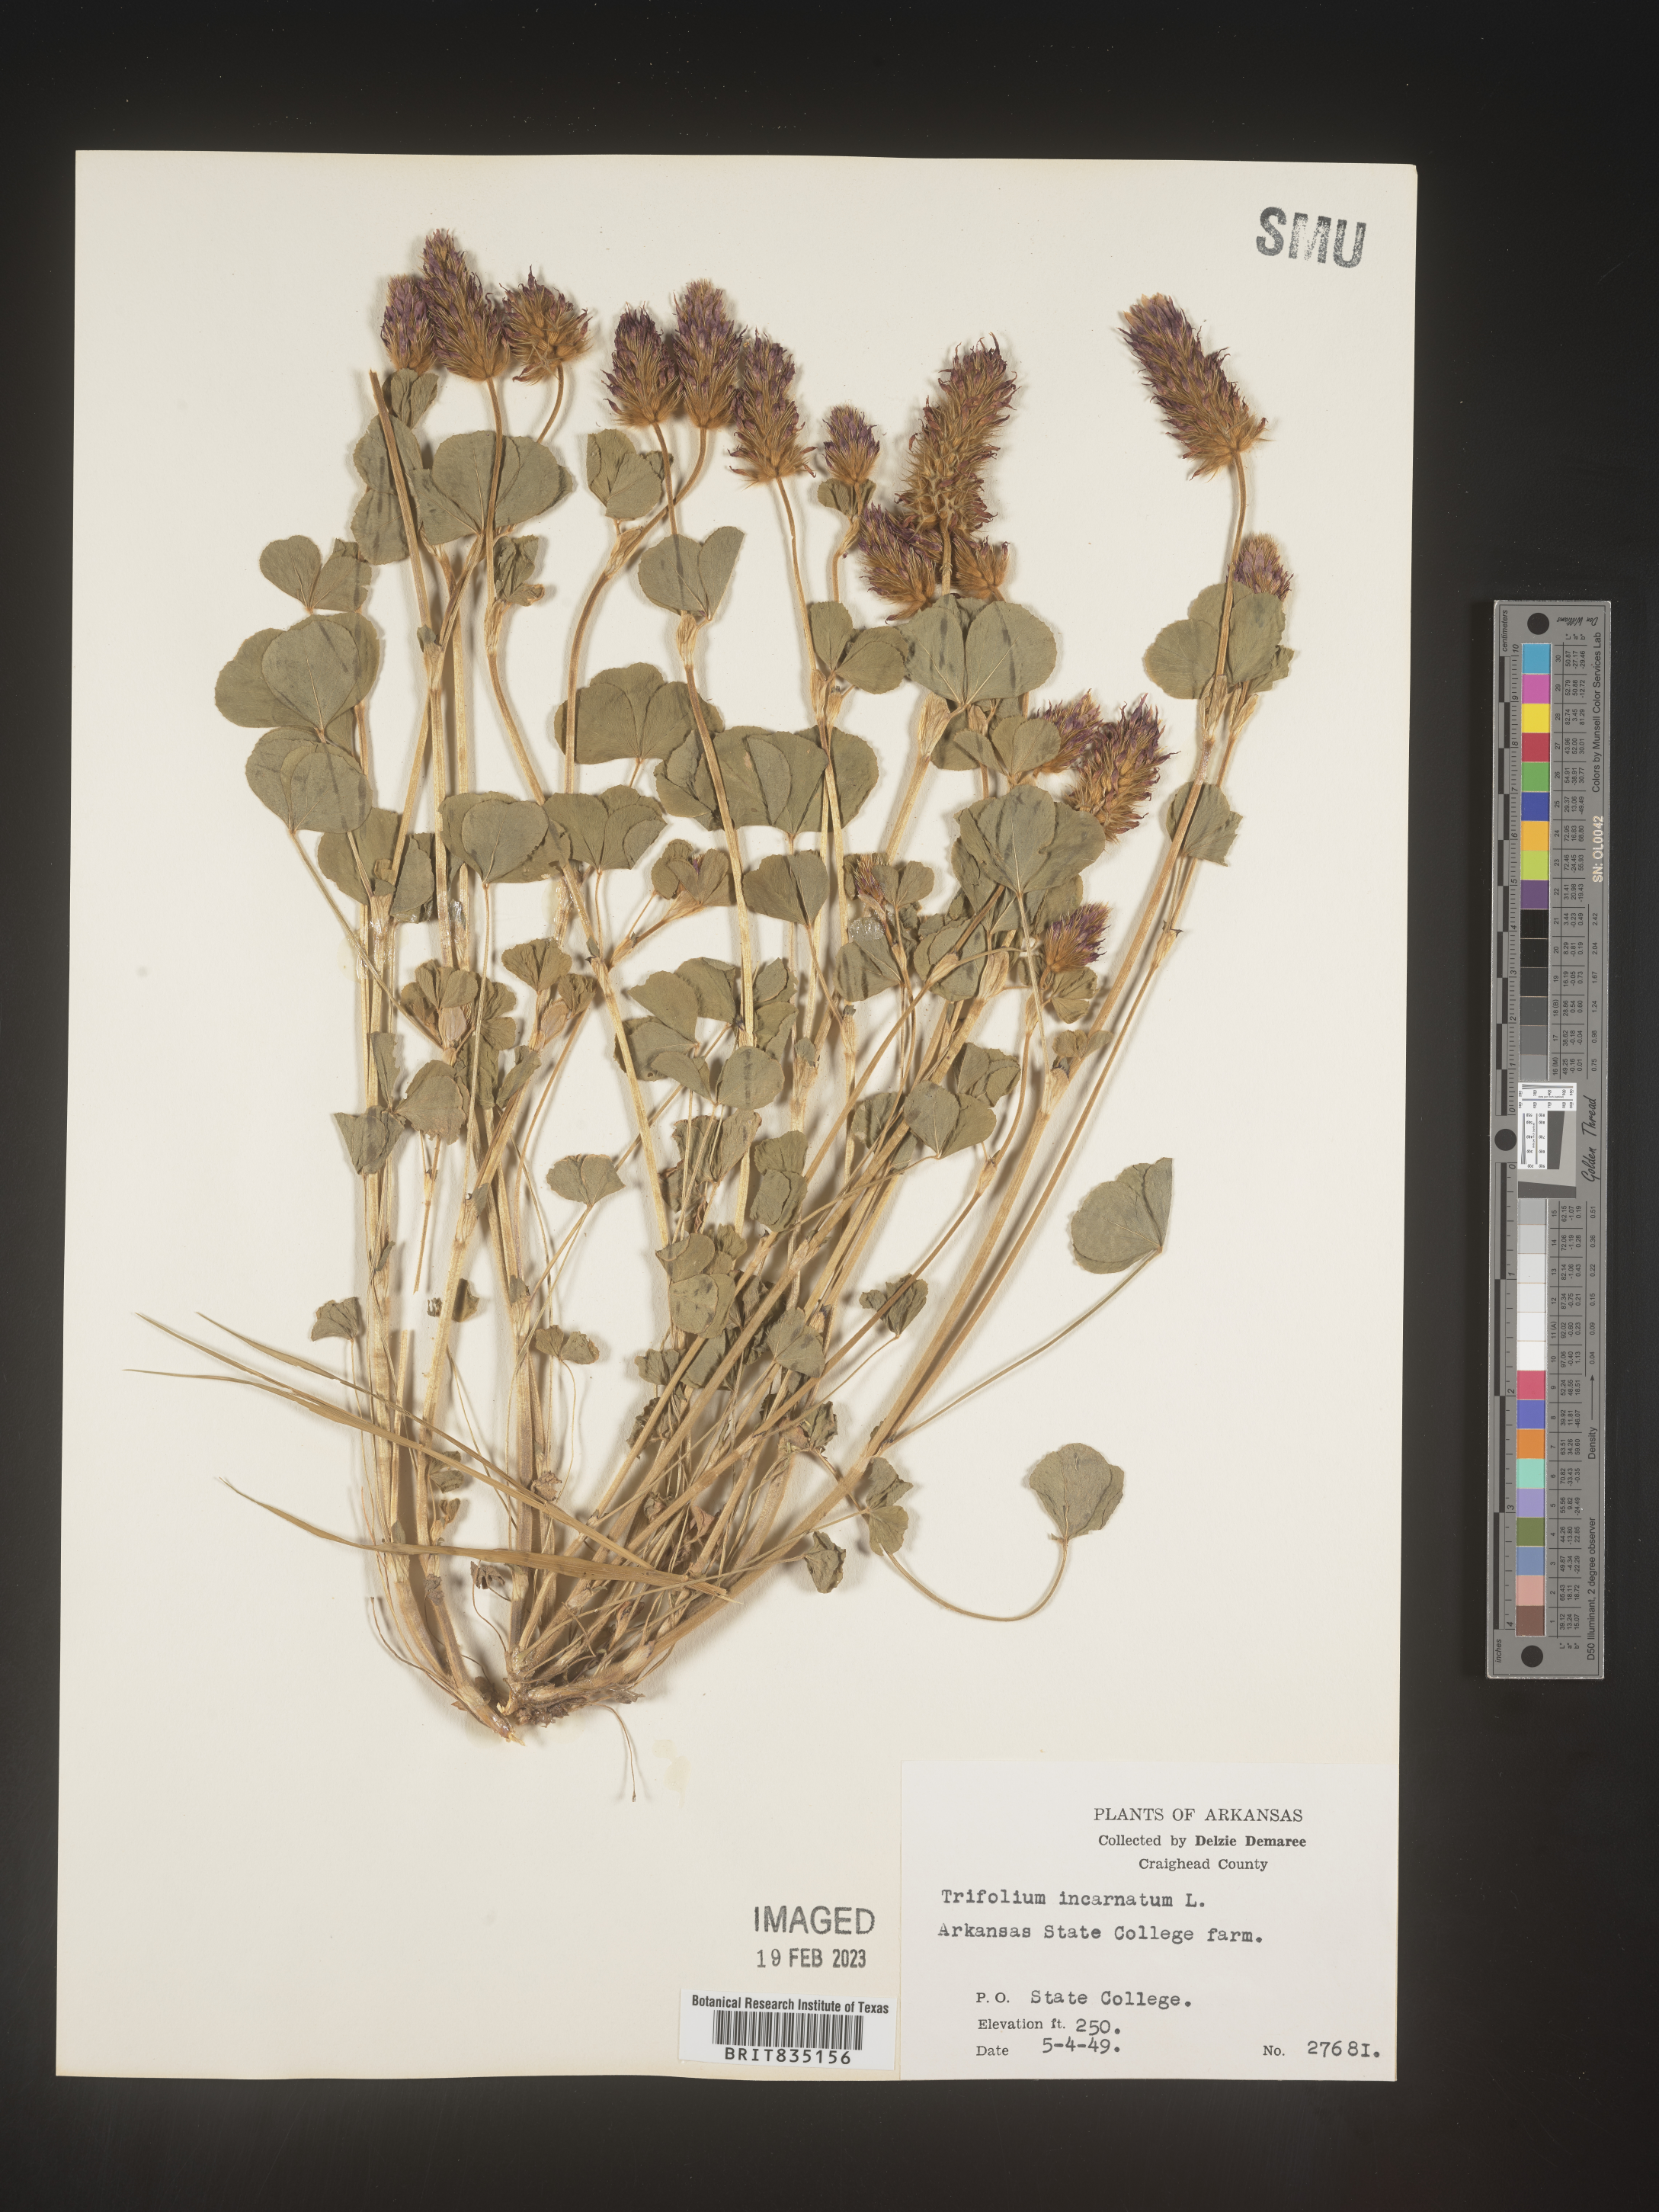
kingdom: Plantae
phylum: Tracheophyta
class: Magnoliopsida
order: Fabales
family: Fabaceae
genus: Trigonella
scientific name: Trigonella
